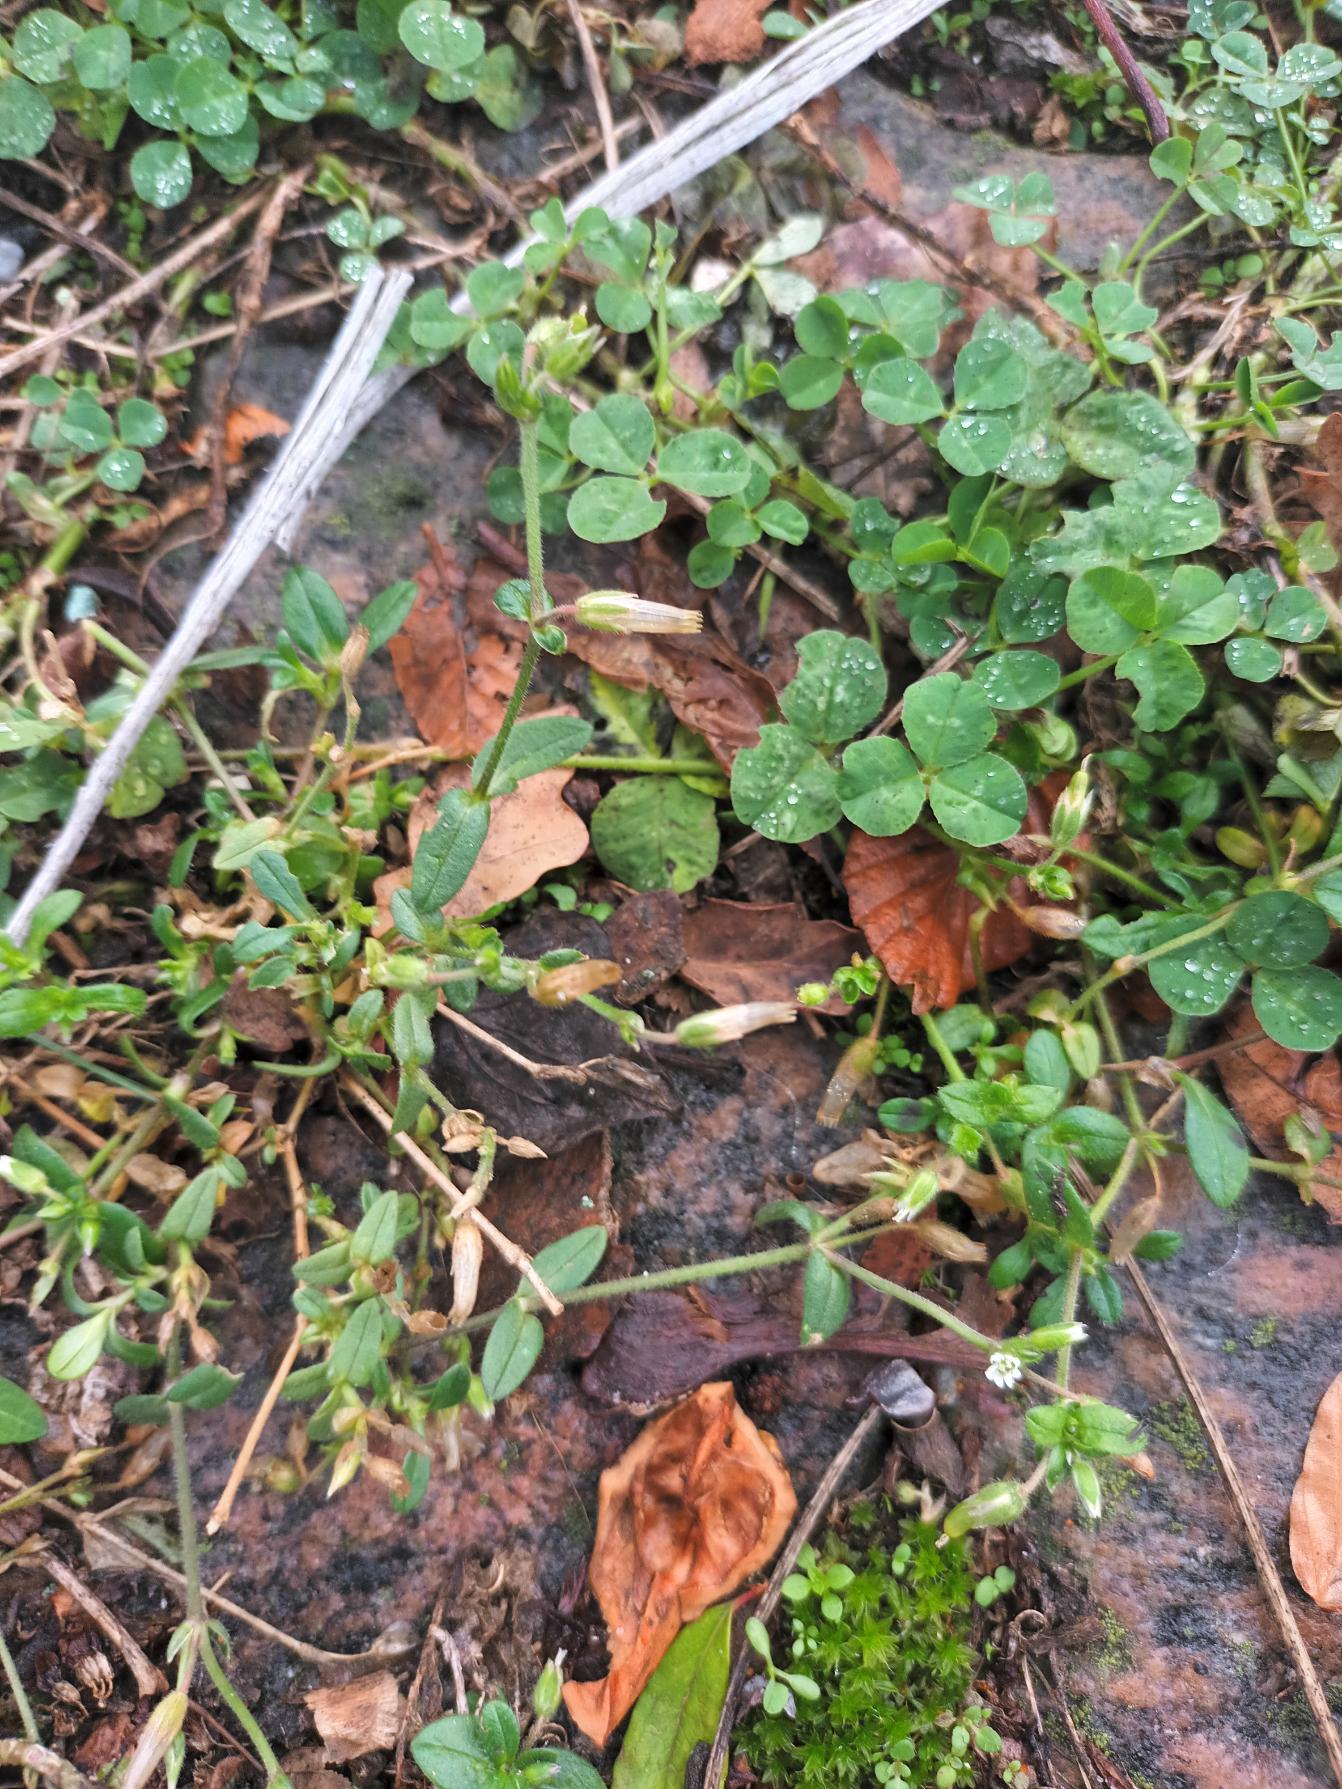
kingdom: Plantae
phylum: Tracheophyta
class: Magnoliopsida
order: Caryophyllales
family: Caryophyllaceae
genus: Cerastium
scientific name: Cerastium fontanum
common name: Almindelig hønsetarm
